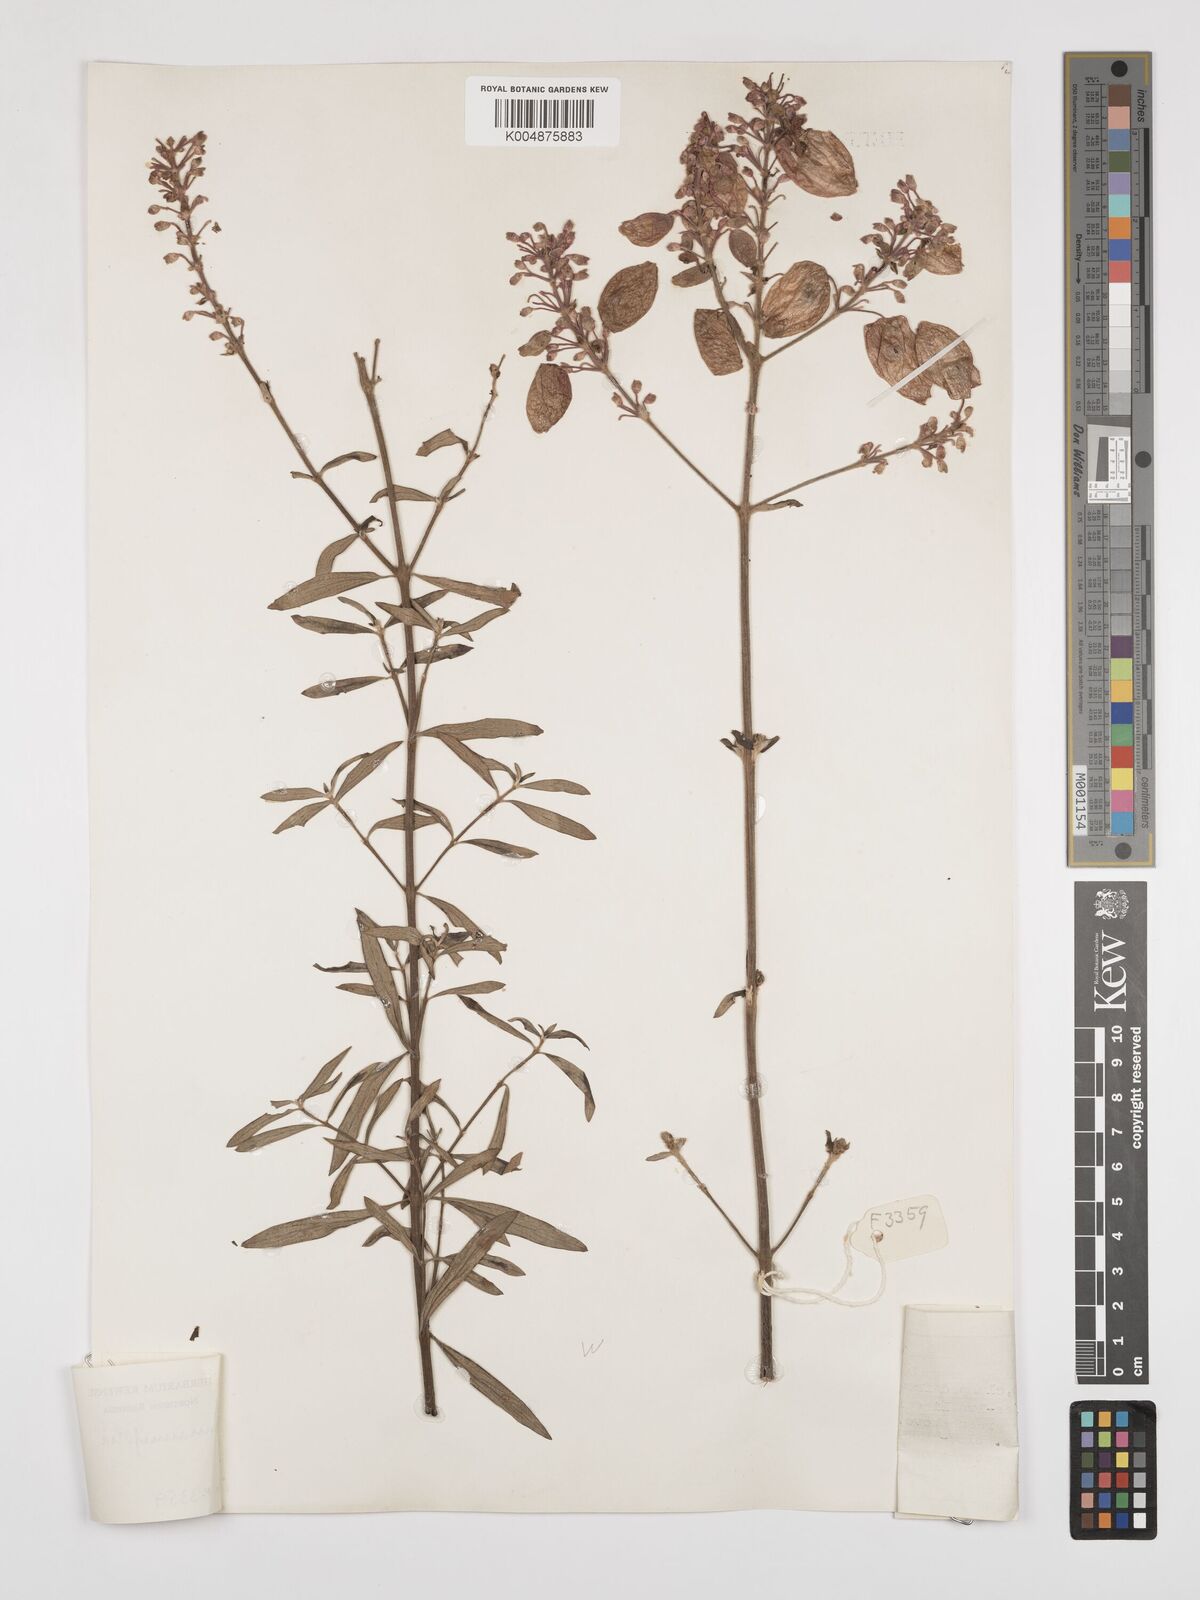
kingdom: Plantae
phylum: Tracheophyta
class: Magnoliopsida
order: Lamiales
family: Lamiaceae
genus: Alvesia
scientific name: Alvesia rosmarinifolia
